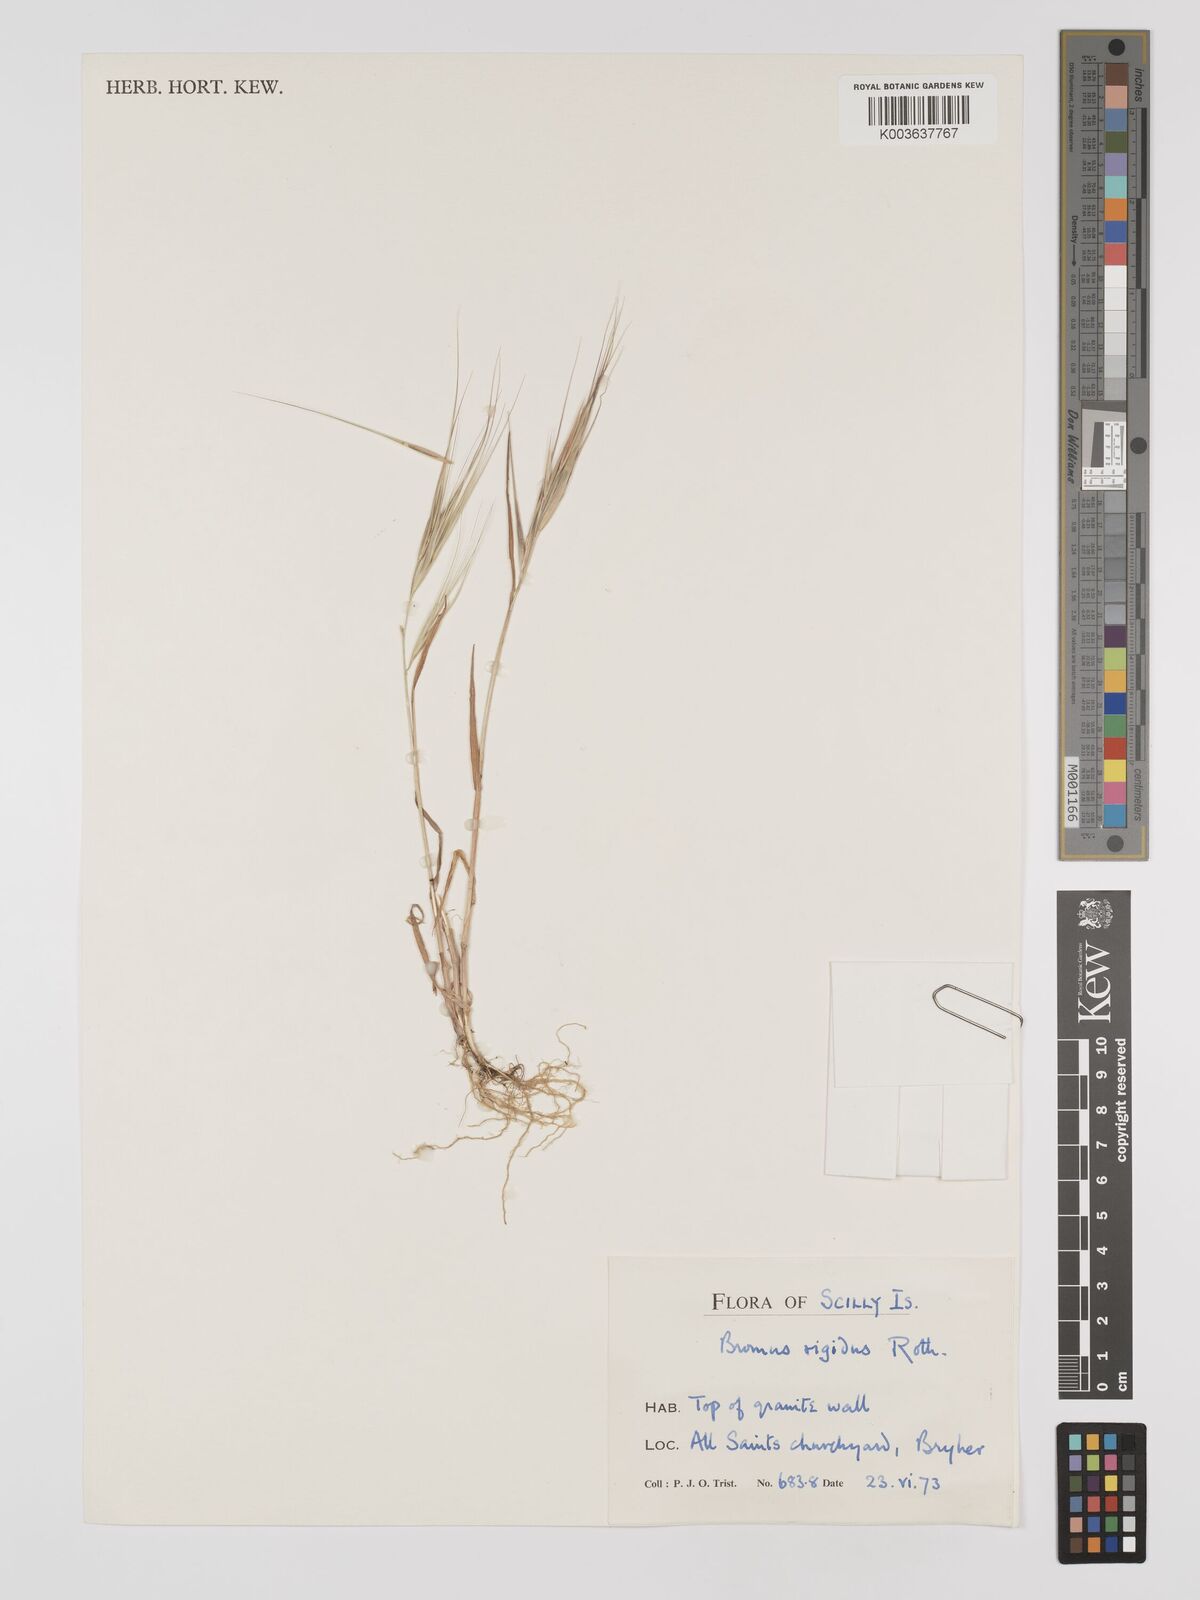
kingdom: Plantae
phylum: Tracheophyta
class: Liliopsida
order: Poales
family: Poaceae
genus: Bromus
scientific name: Bromus
